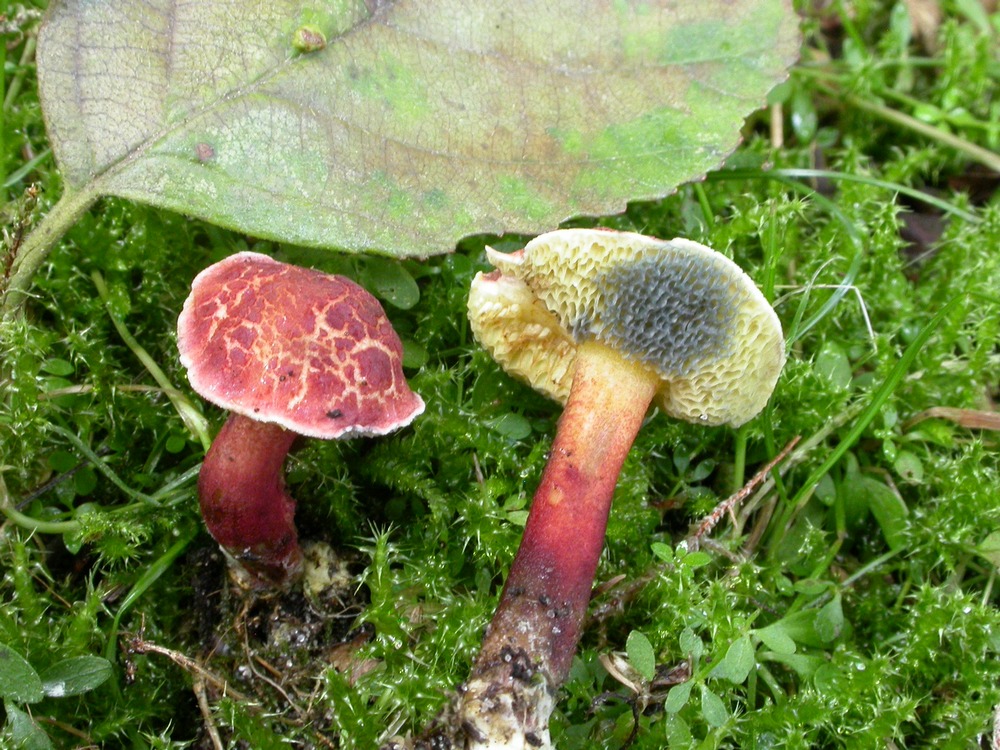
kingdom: Fungi
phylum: Basidiomycota
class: Agaricomycetes
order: Boletales
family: Boletaceae
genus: Xerocomellus
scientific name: Xerocomellus ripariellus
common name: sump-rørhat
